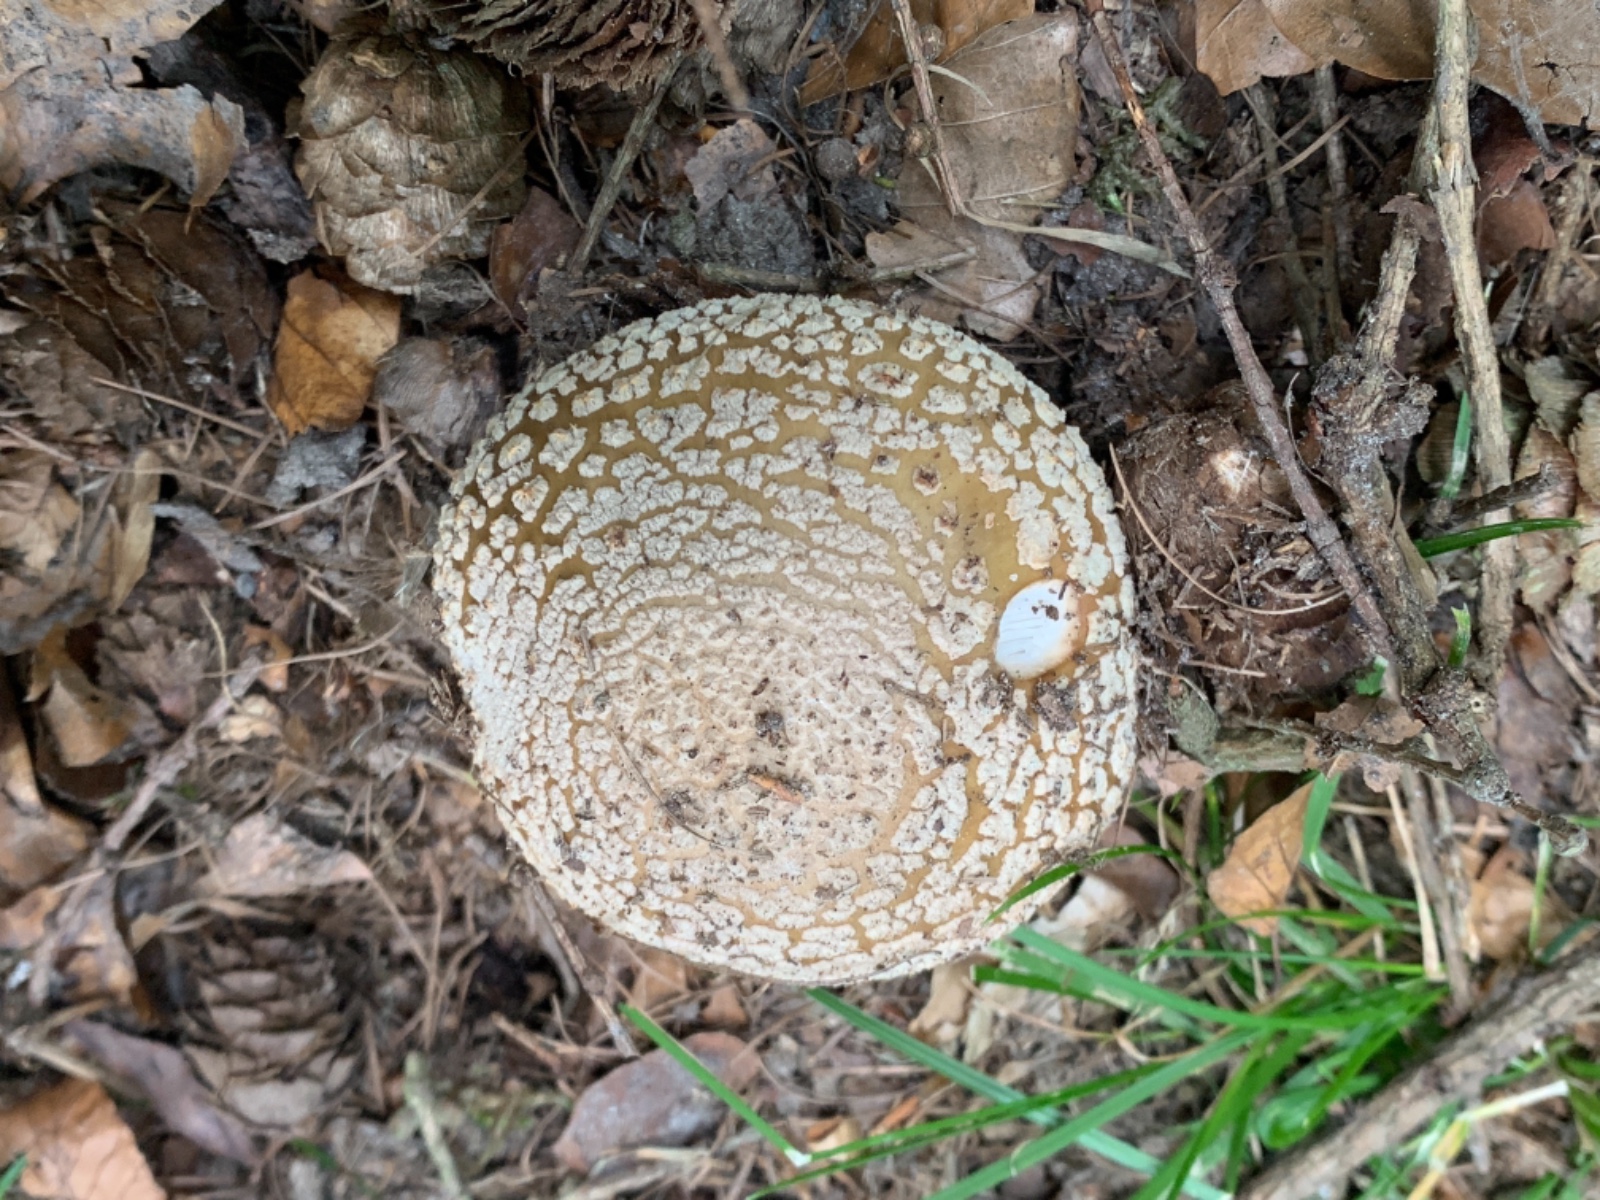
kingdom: Fungi
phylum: Basidiomycota
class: Agaricomycetes
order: Agaricales
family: Amanitaceae
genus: Amanita
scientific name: Amanita rubescens
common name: rødmende fluesvamp
